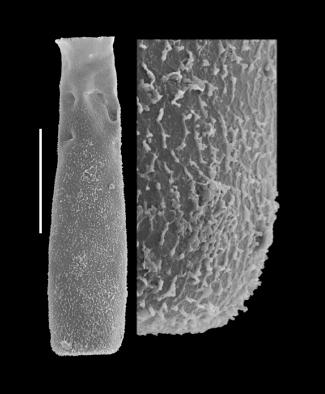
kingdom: Protozoa
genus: Belonechitina
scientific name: Belonechitina
